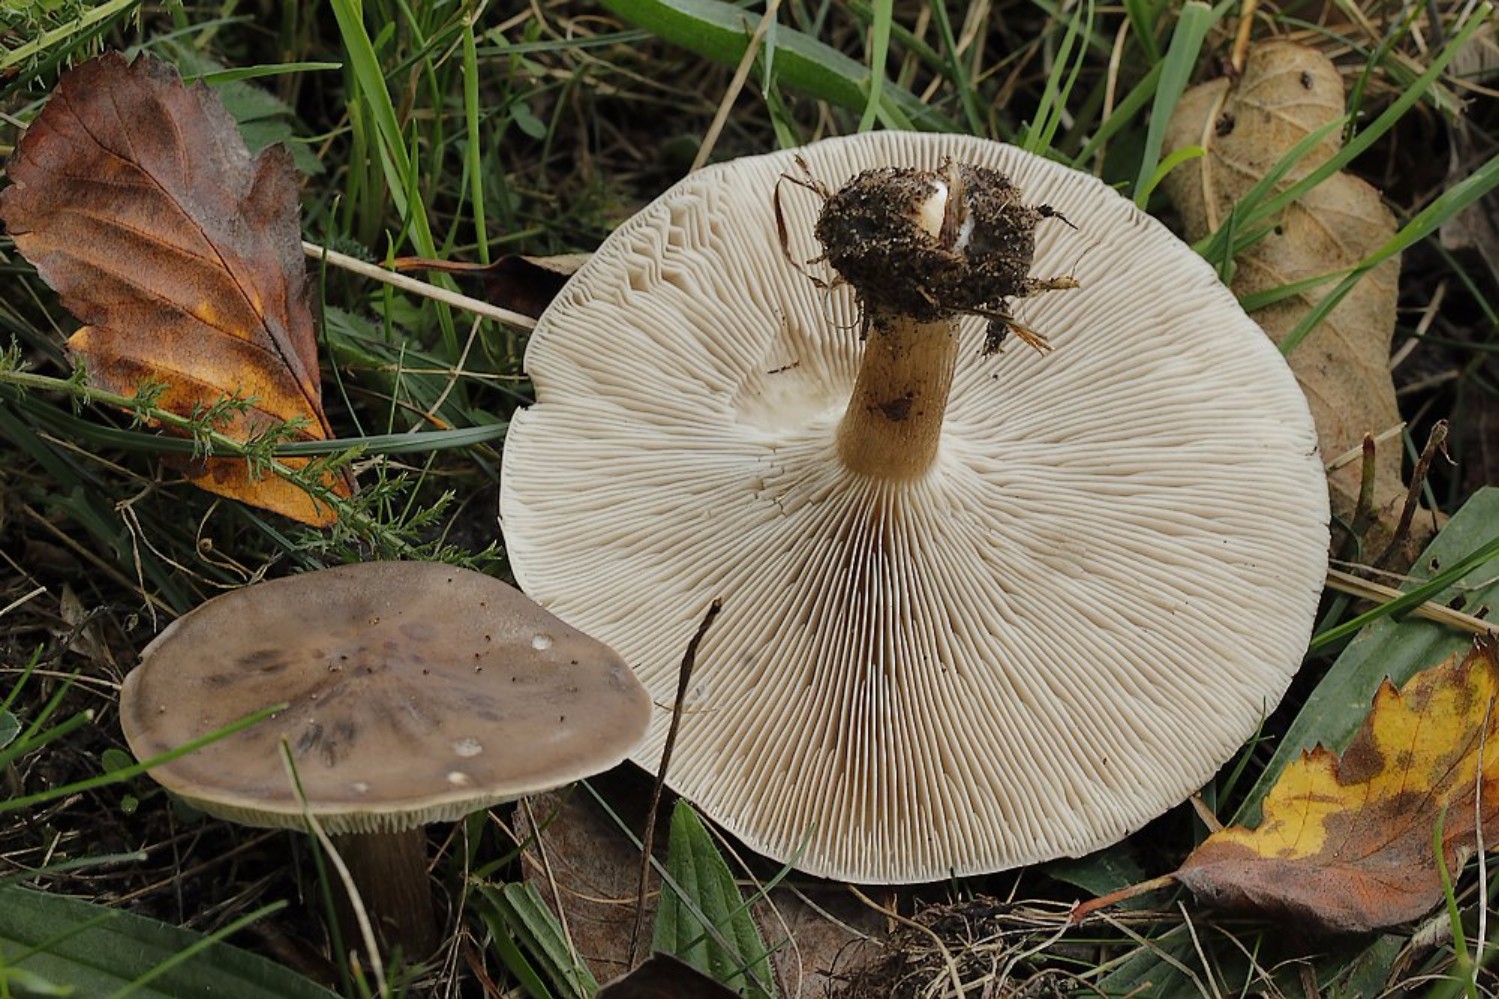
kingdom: Fungi
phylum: Basidiomycota
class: Agaricomycetes
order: Agaricales
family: Tricholomataceae
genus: Melanoleuca
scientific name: Melanoleuca
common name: munkehat
